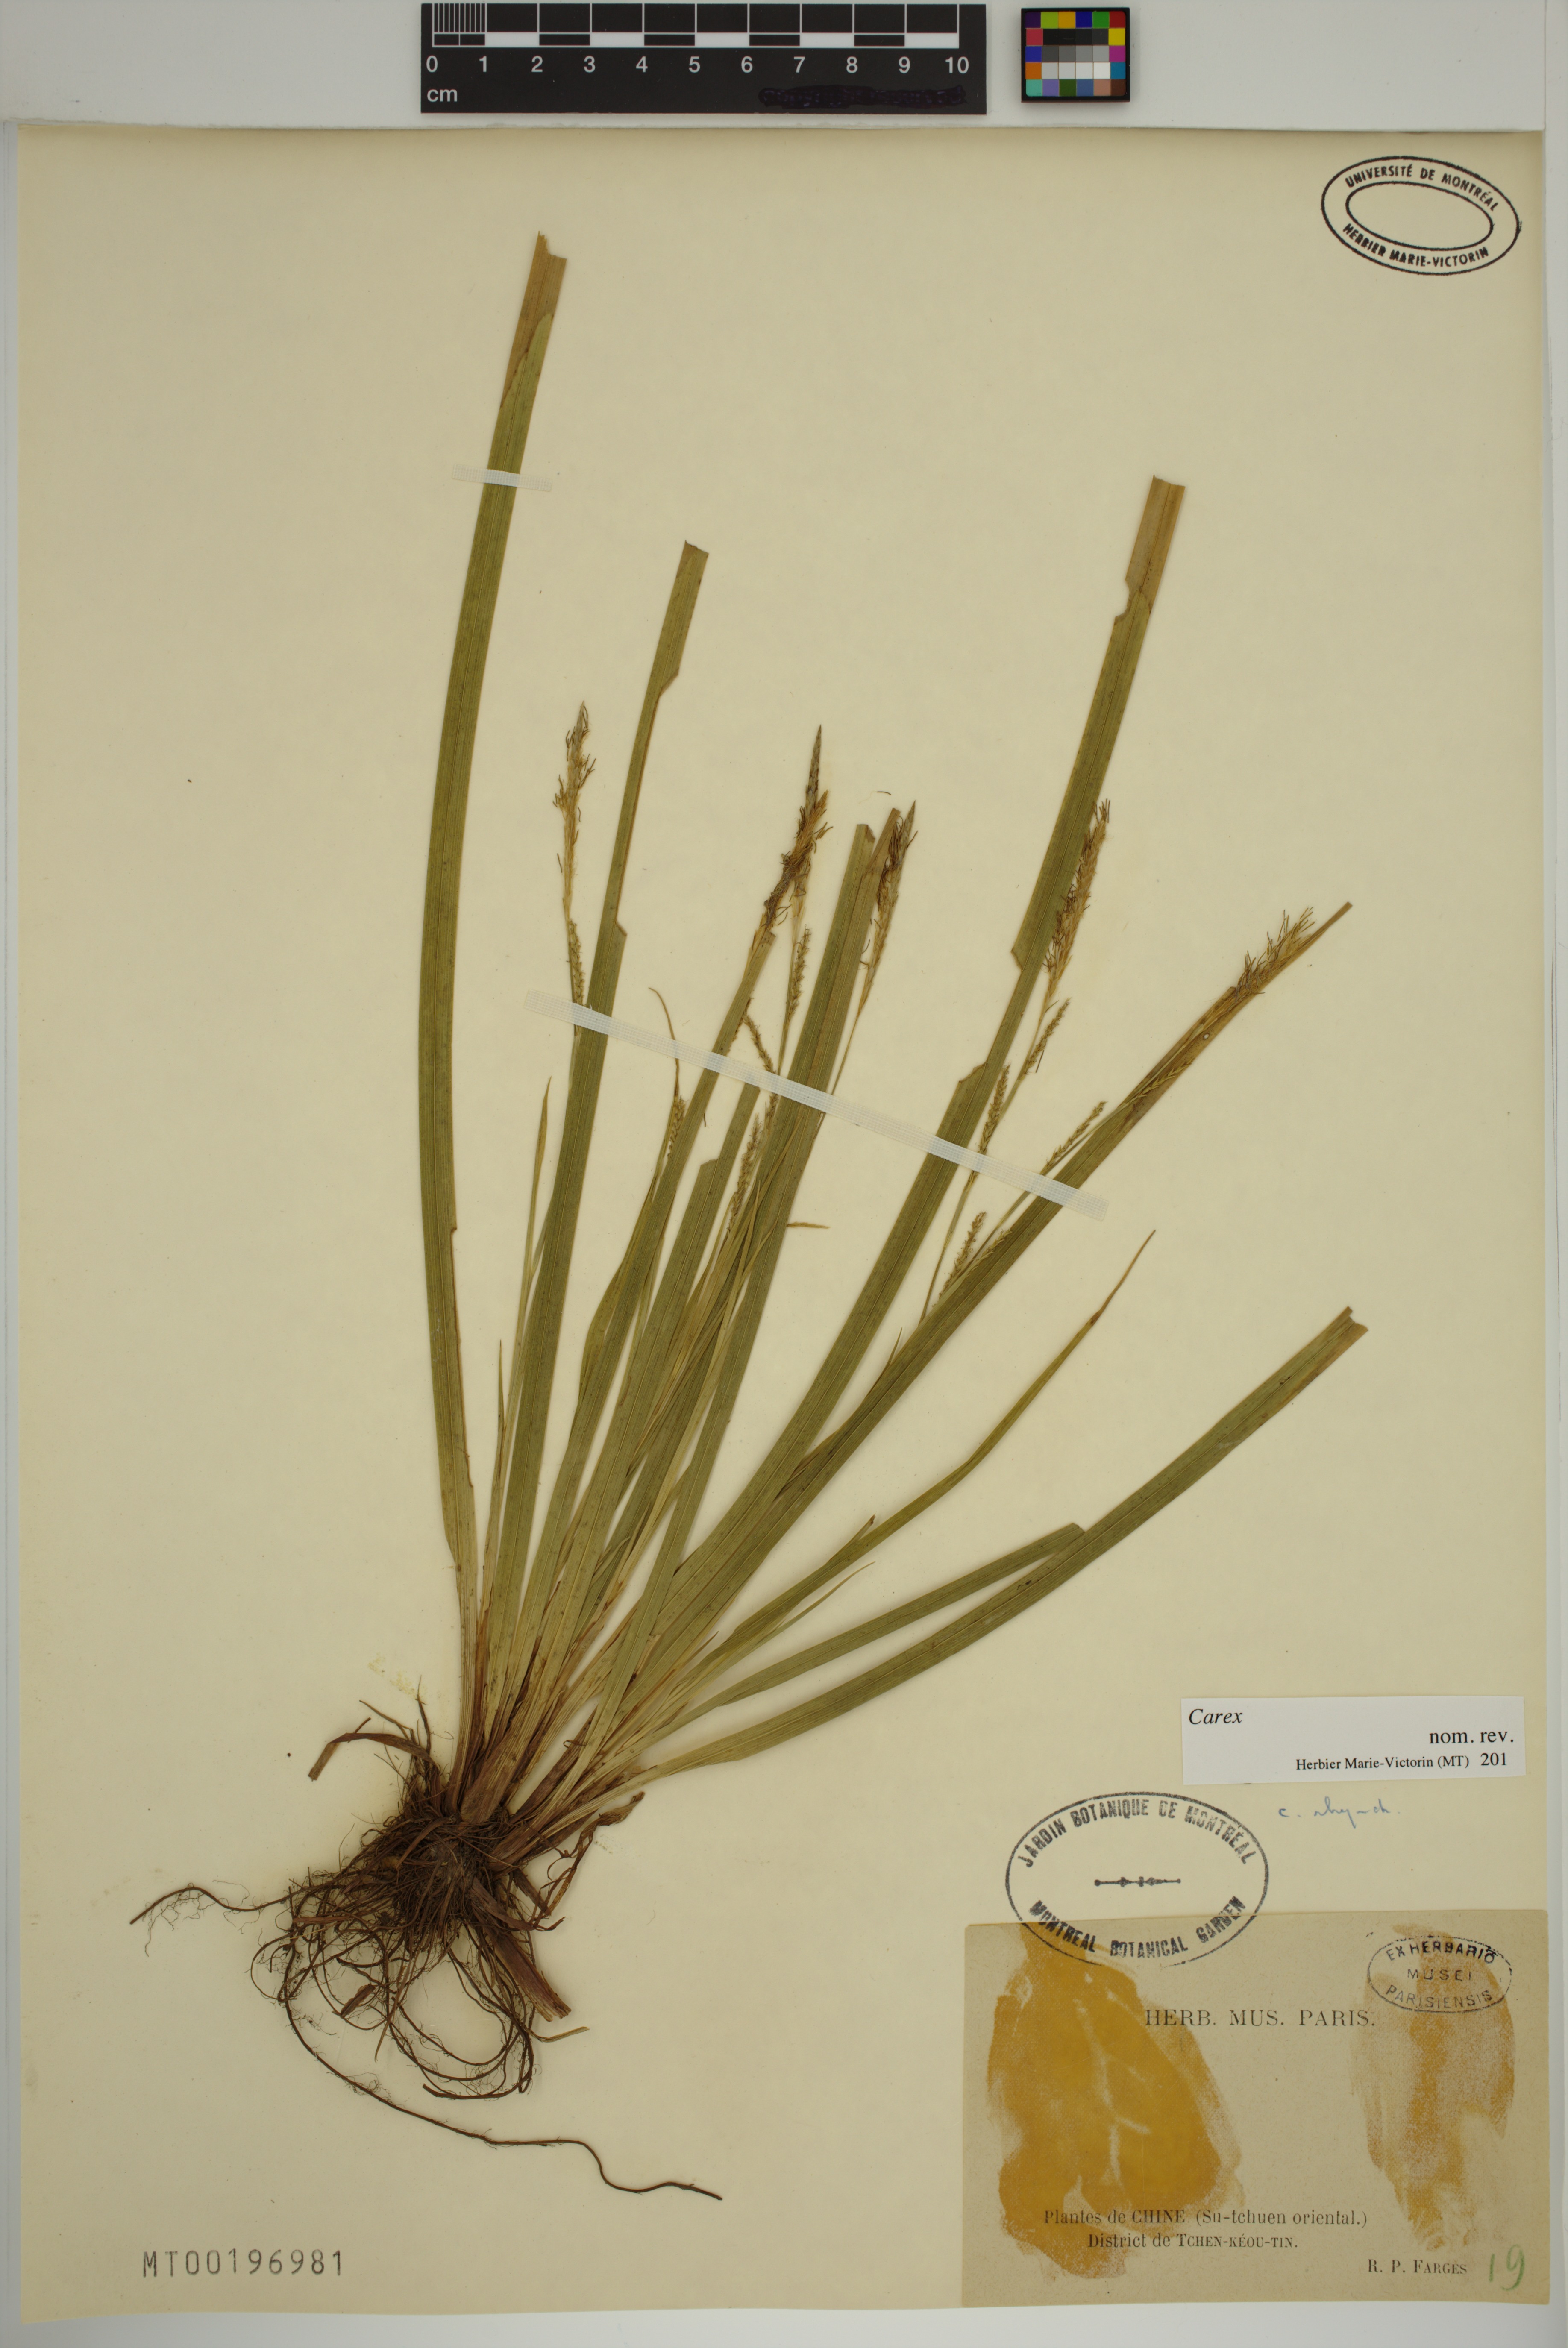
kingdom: Plantae
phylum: Tracheophyta
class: Liliopsida
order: Poales
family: Cyperaceae
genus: Carex
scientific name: Carex
